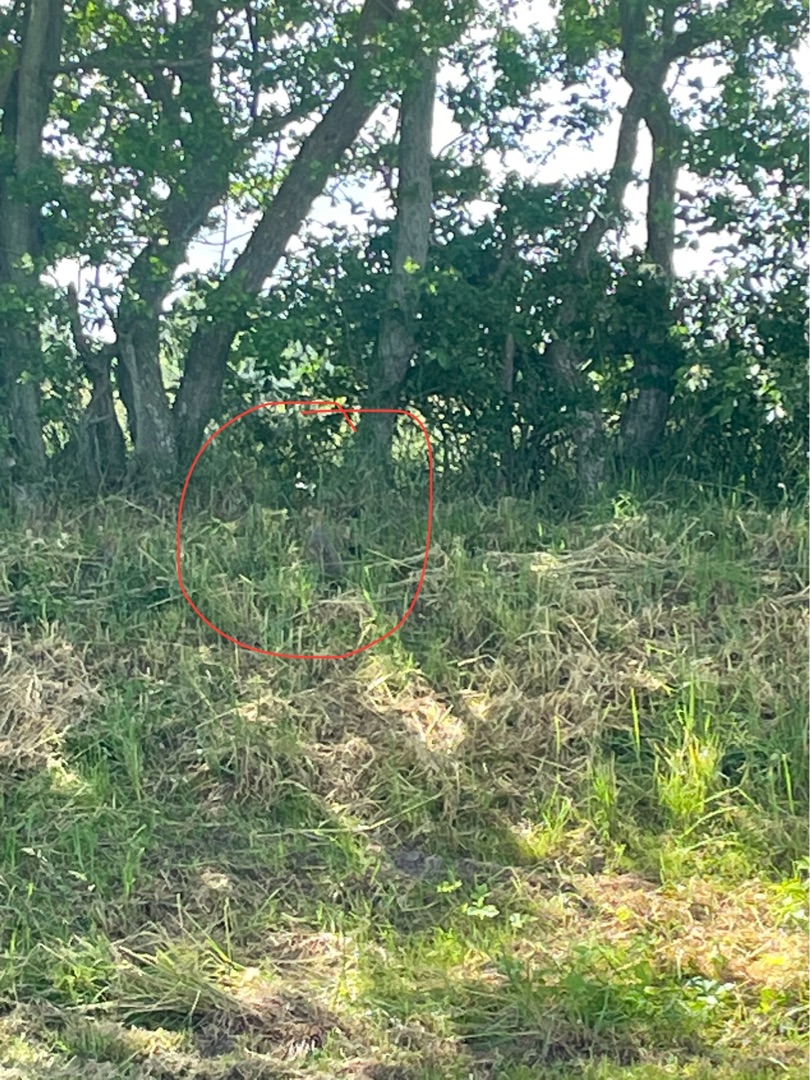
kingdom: Animalia
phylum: Chordata
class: Aves
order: Galliformes
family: Phasianidae
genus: Perdix
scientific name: Perdix perdix
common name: Agerhøne
